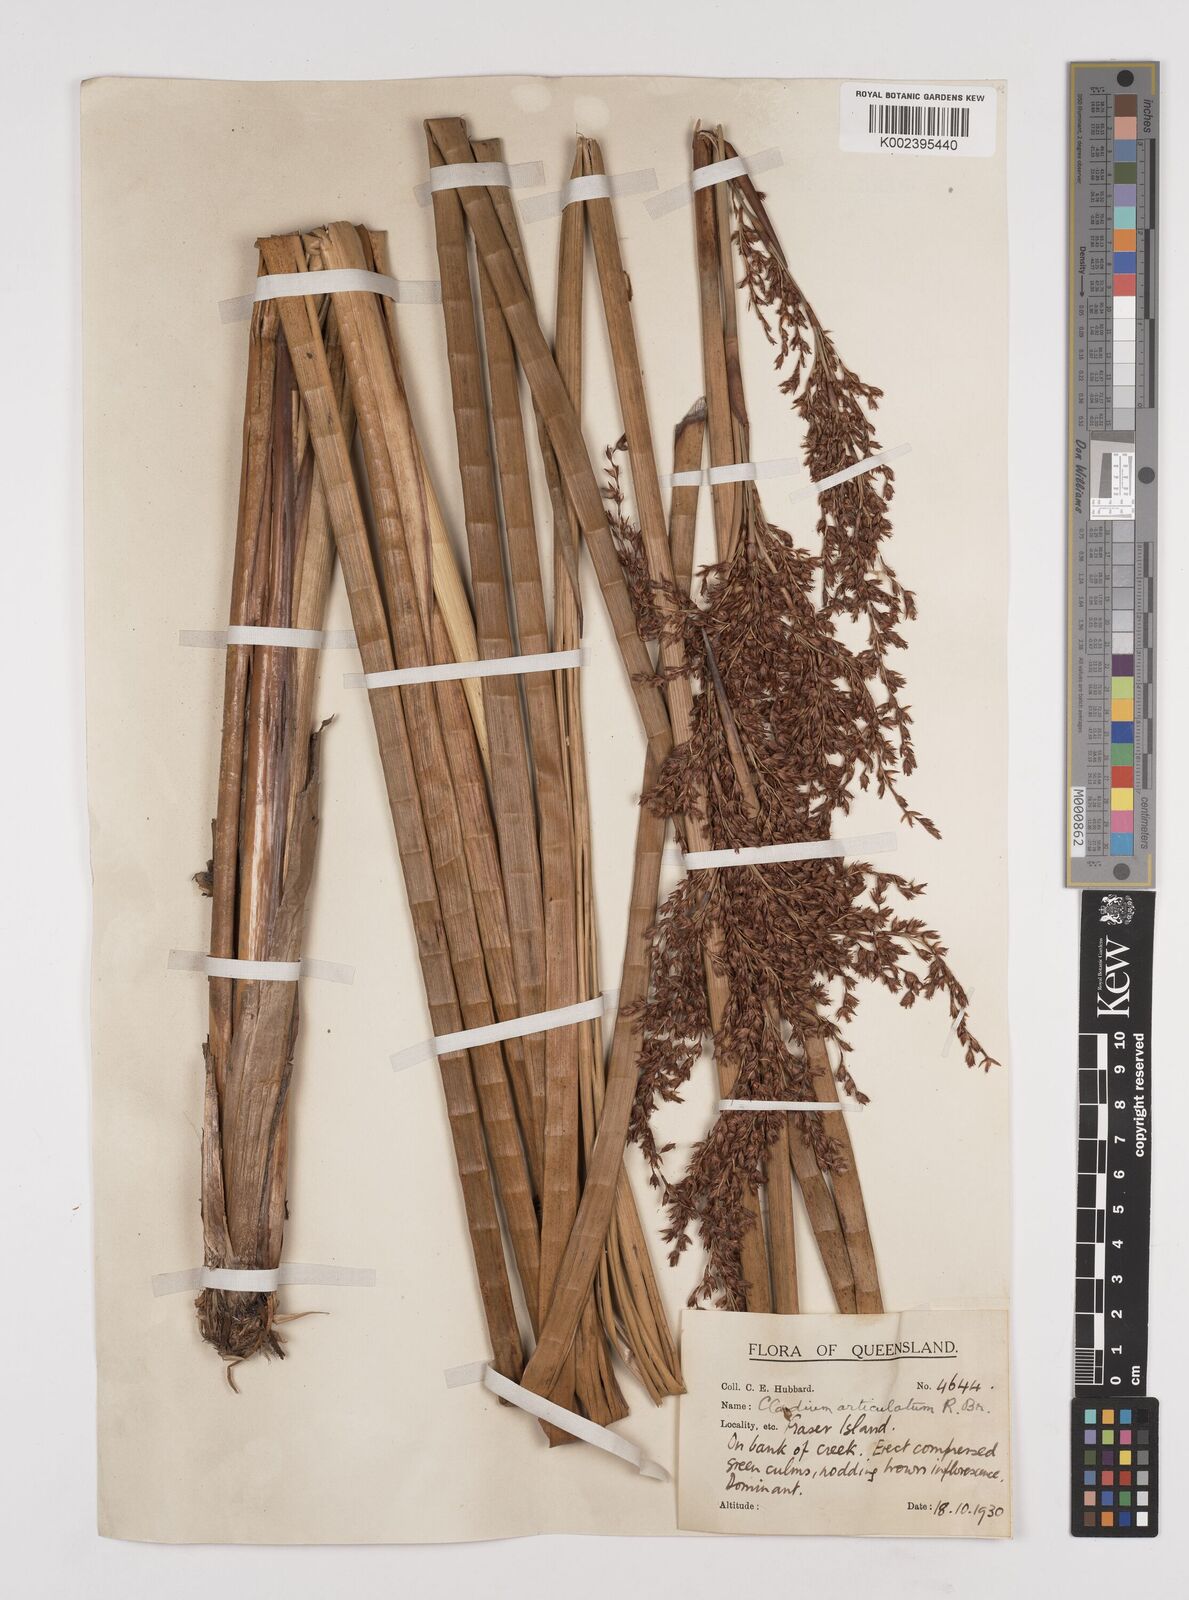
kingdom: Plantae
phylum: Tracheophyta
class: Liliopsida
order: Poales
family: Cyperaceae
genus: Machaerina
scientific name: Machaerina articulata
